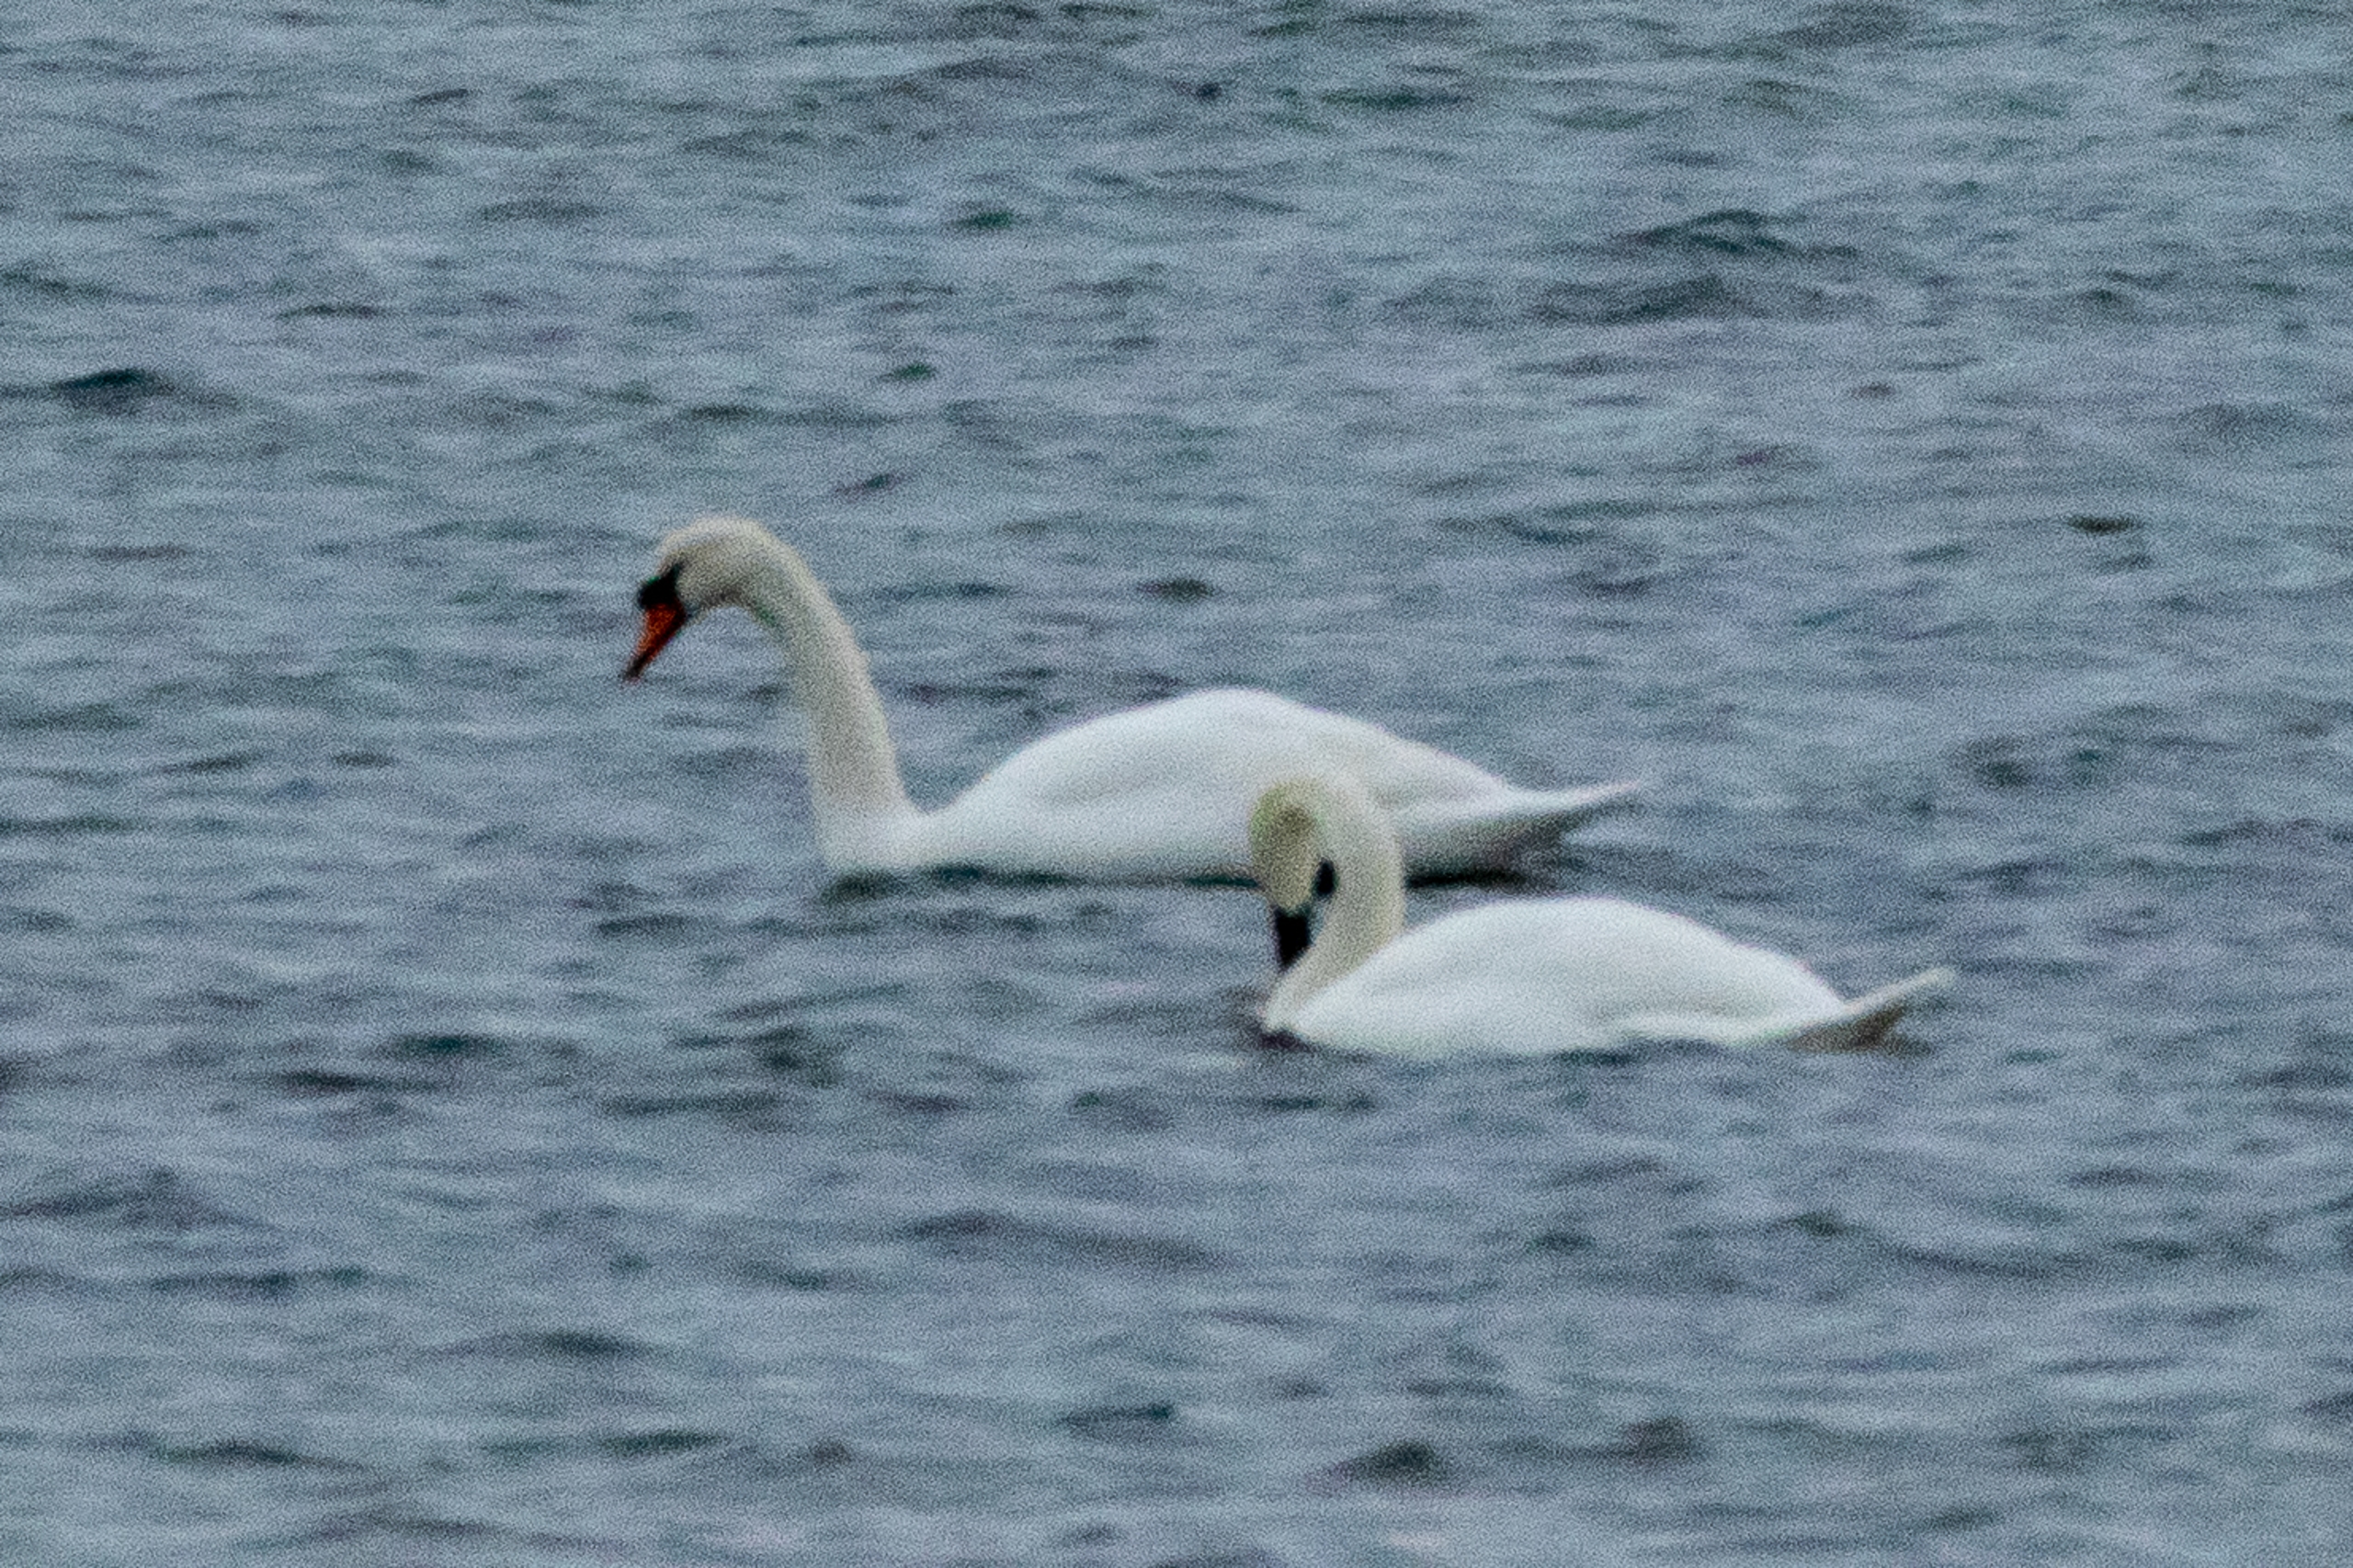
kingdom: Animalia
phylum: Chordata
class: Aves
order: Anseriformes
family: Anatidae
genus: Cygnus
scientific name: Cygnus olor
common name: Knopsvane
